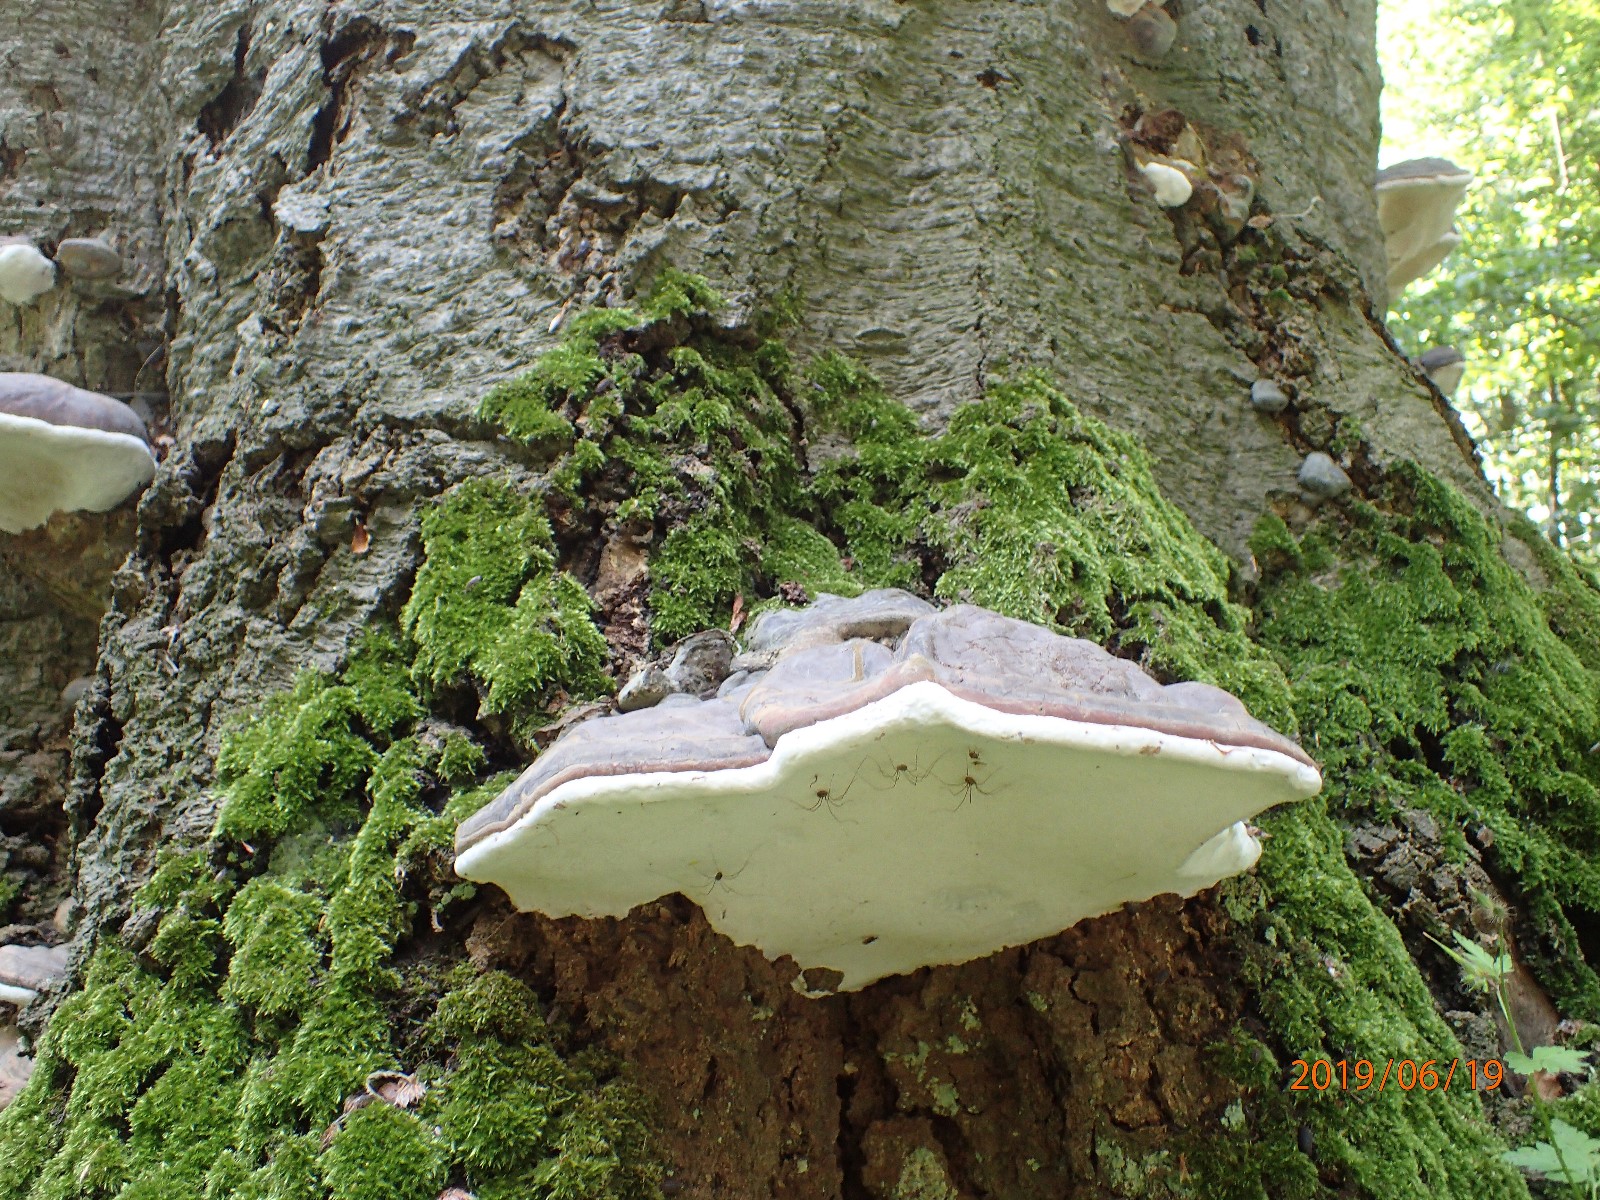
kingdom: Fungi
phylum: Basidiomycota
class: Agaricomycetes
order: Polyporales
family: Polyporaceae
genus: Ganoderma
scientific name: Ganoderma pfeifferi
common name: kobberrød lakporesvamp
